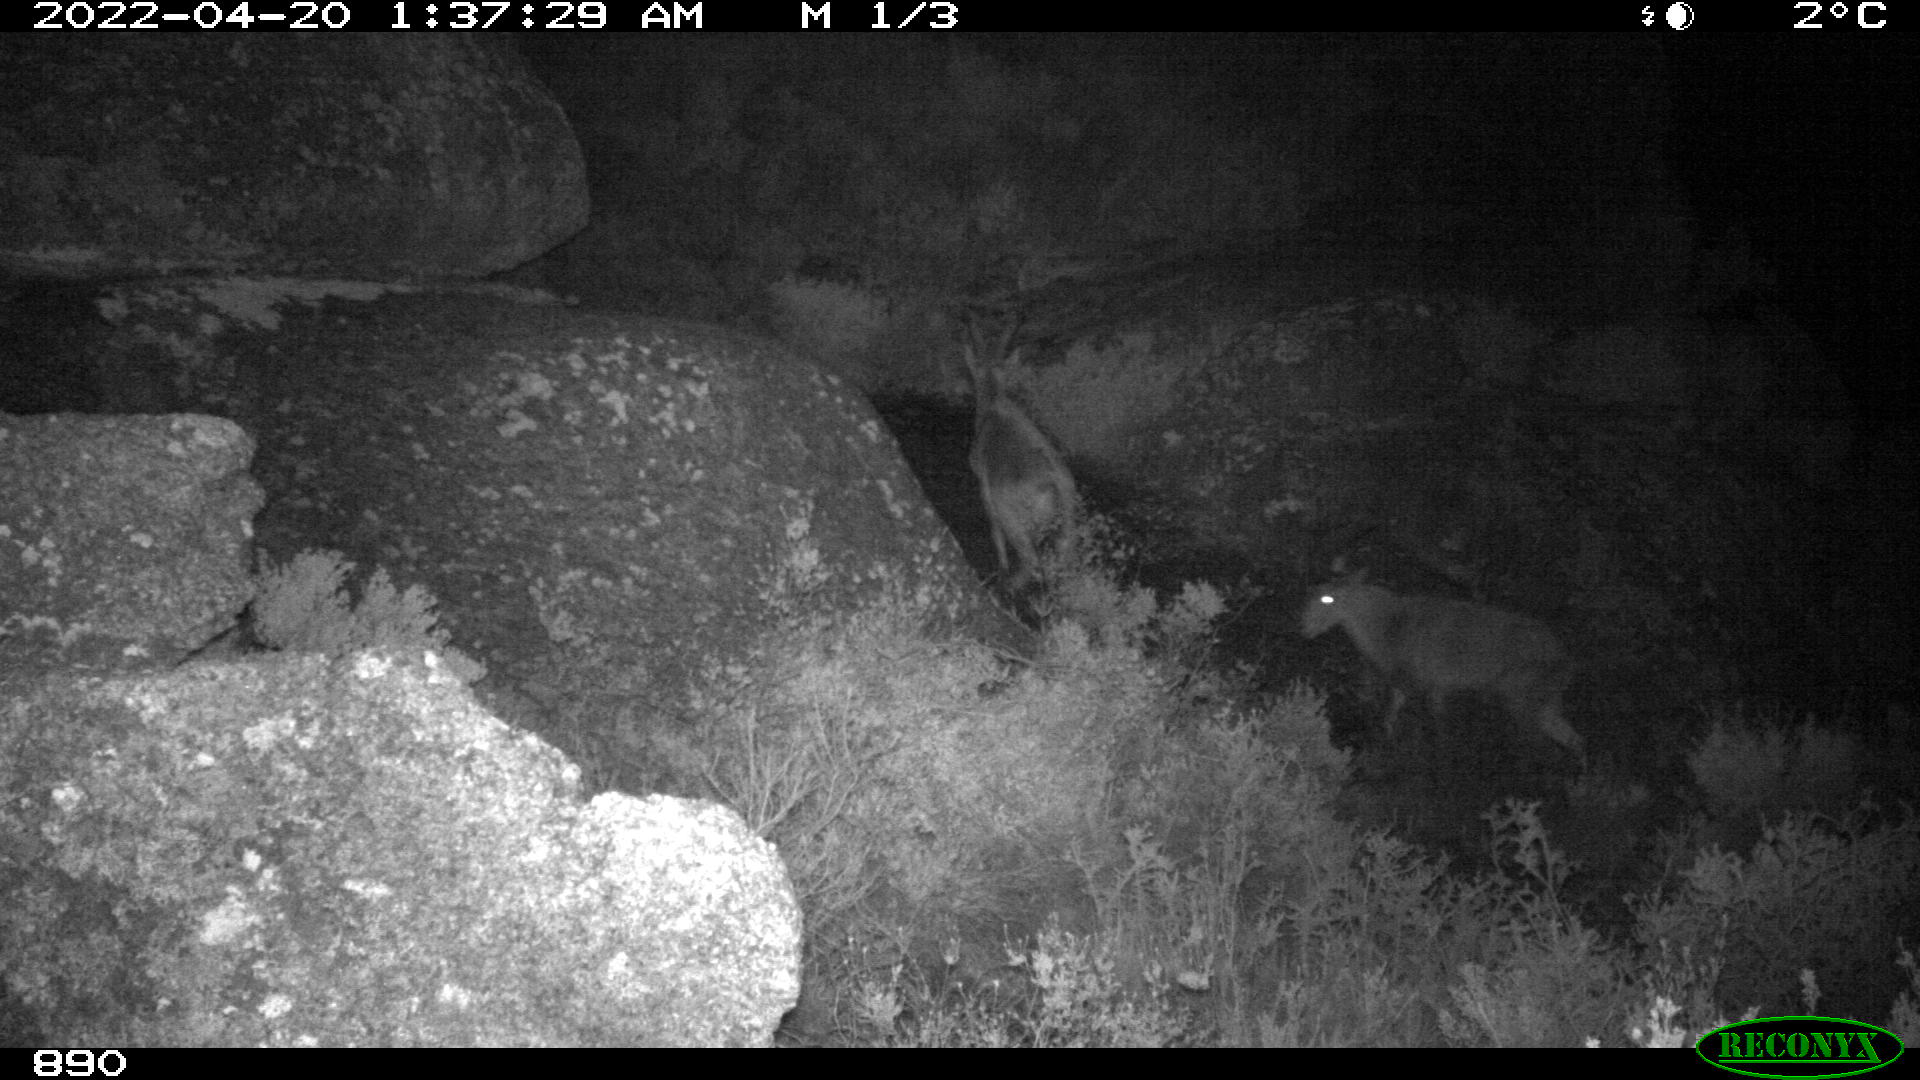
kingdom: Animalia
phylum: Chordata
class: Mammalia
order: Artiodactyla
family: Bovidae
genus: Capra
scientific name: Capra pyrenaica
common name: Spanish ibex
